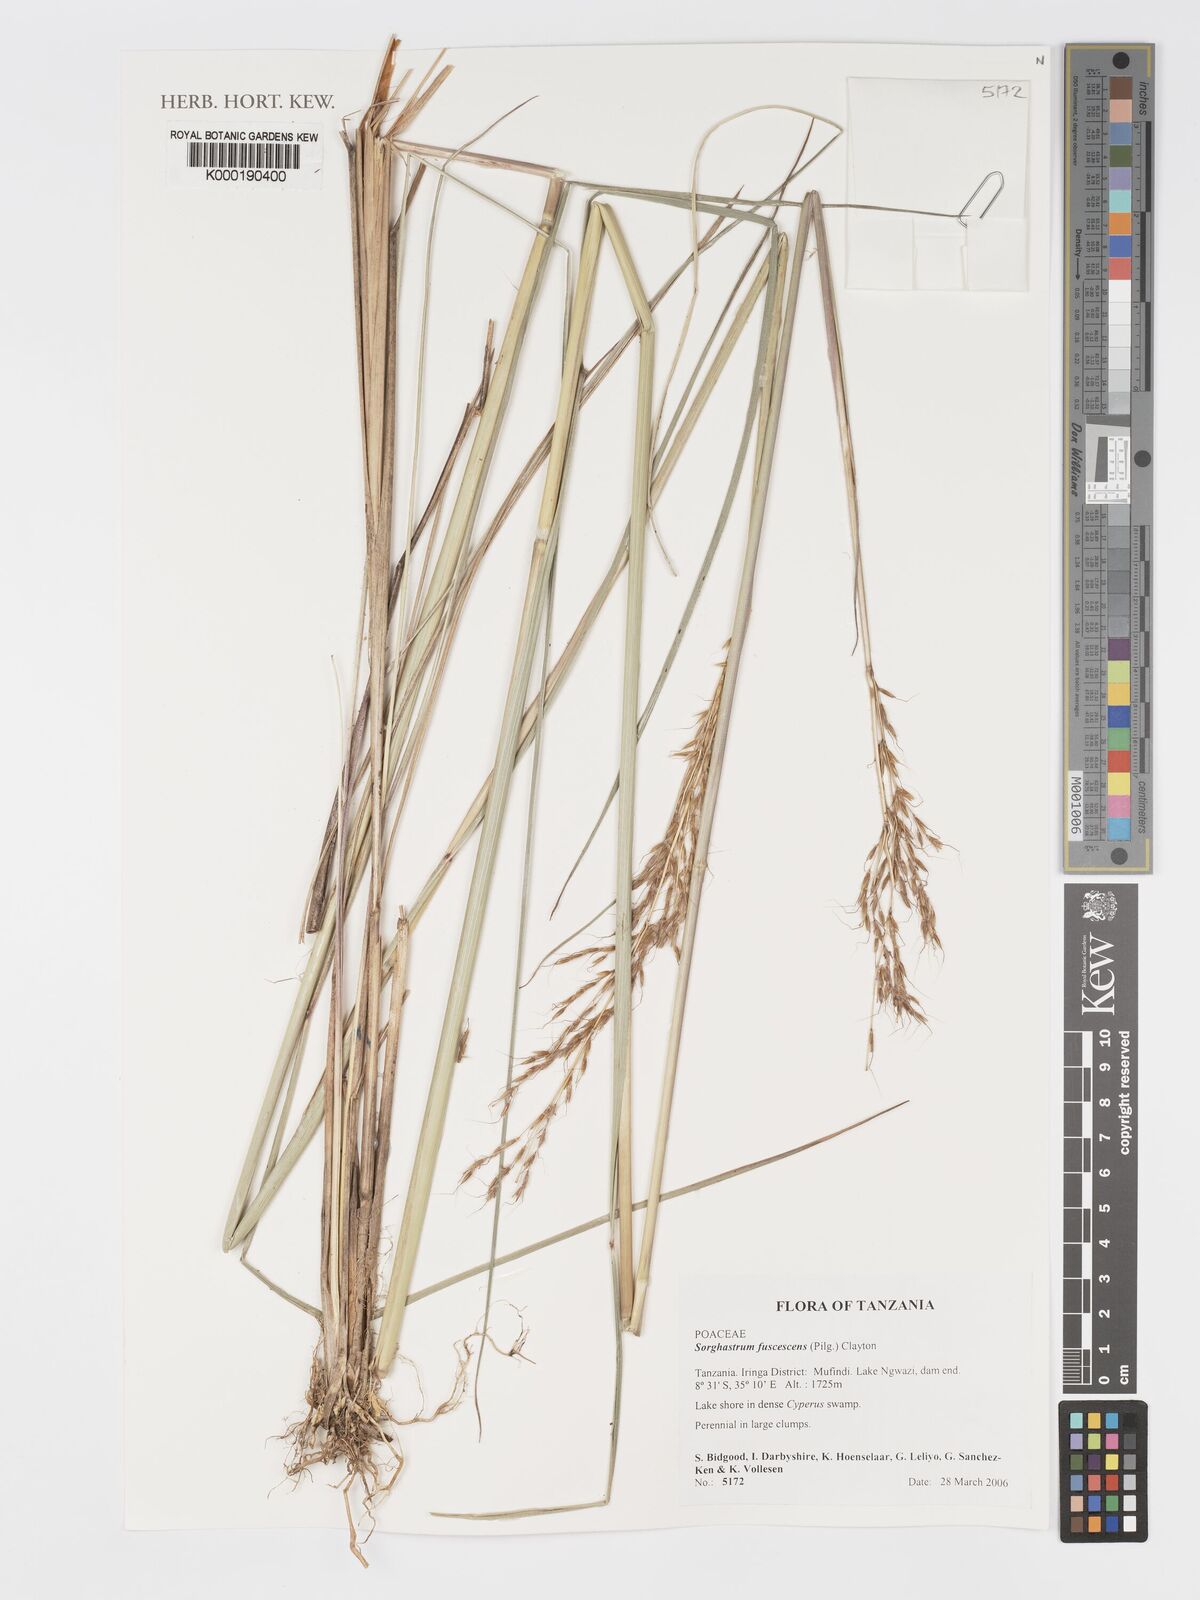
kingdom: Plantae
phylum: Tracheophyta
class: Liliopsida
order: Poales
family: Poaceae
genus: Sorghastrum
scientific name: Sorghastrum fuscescens
